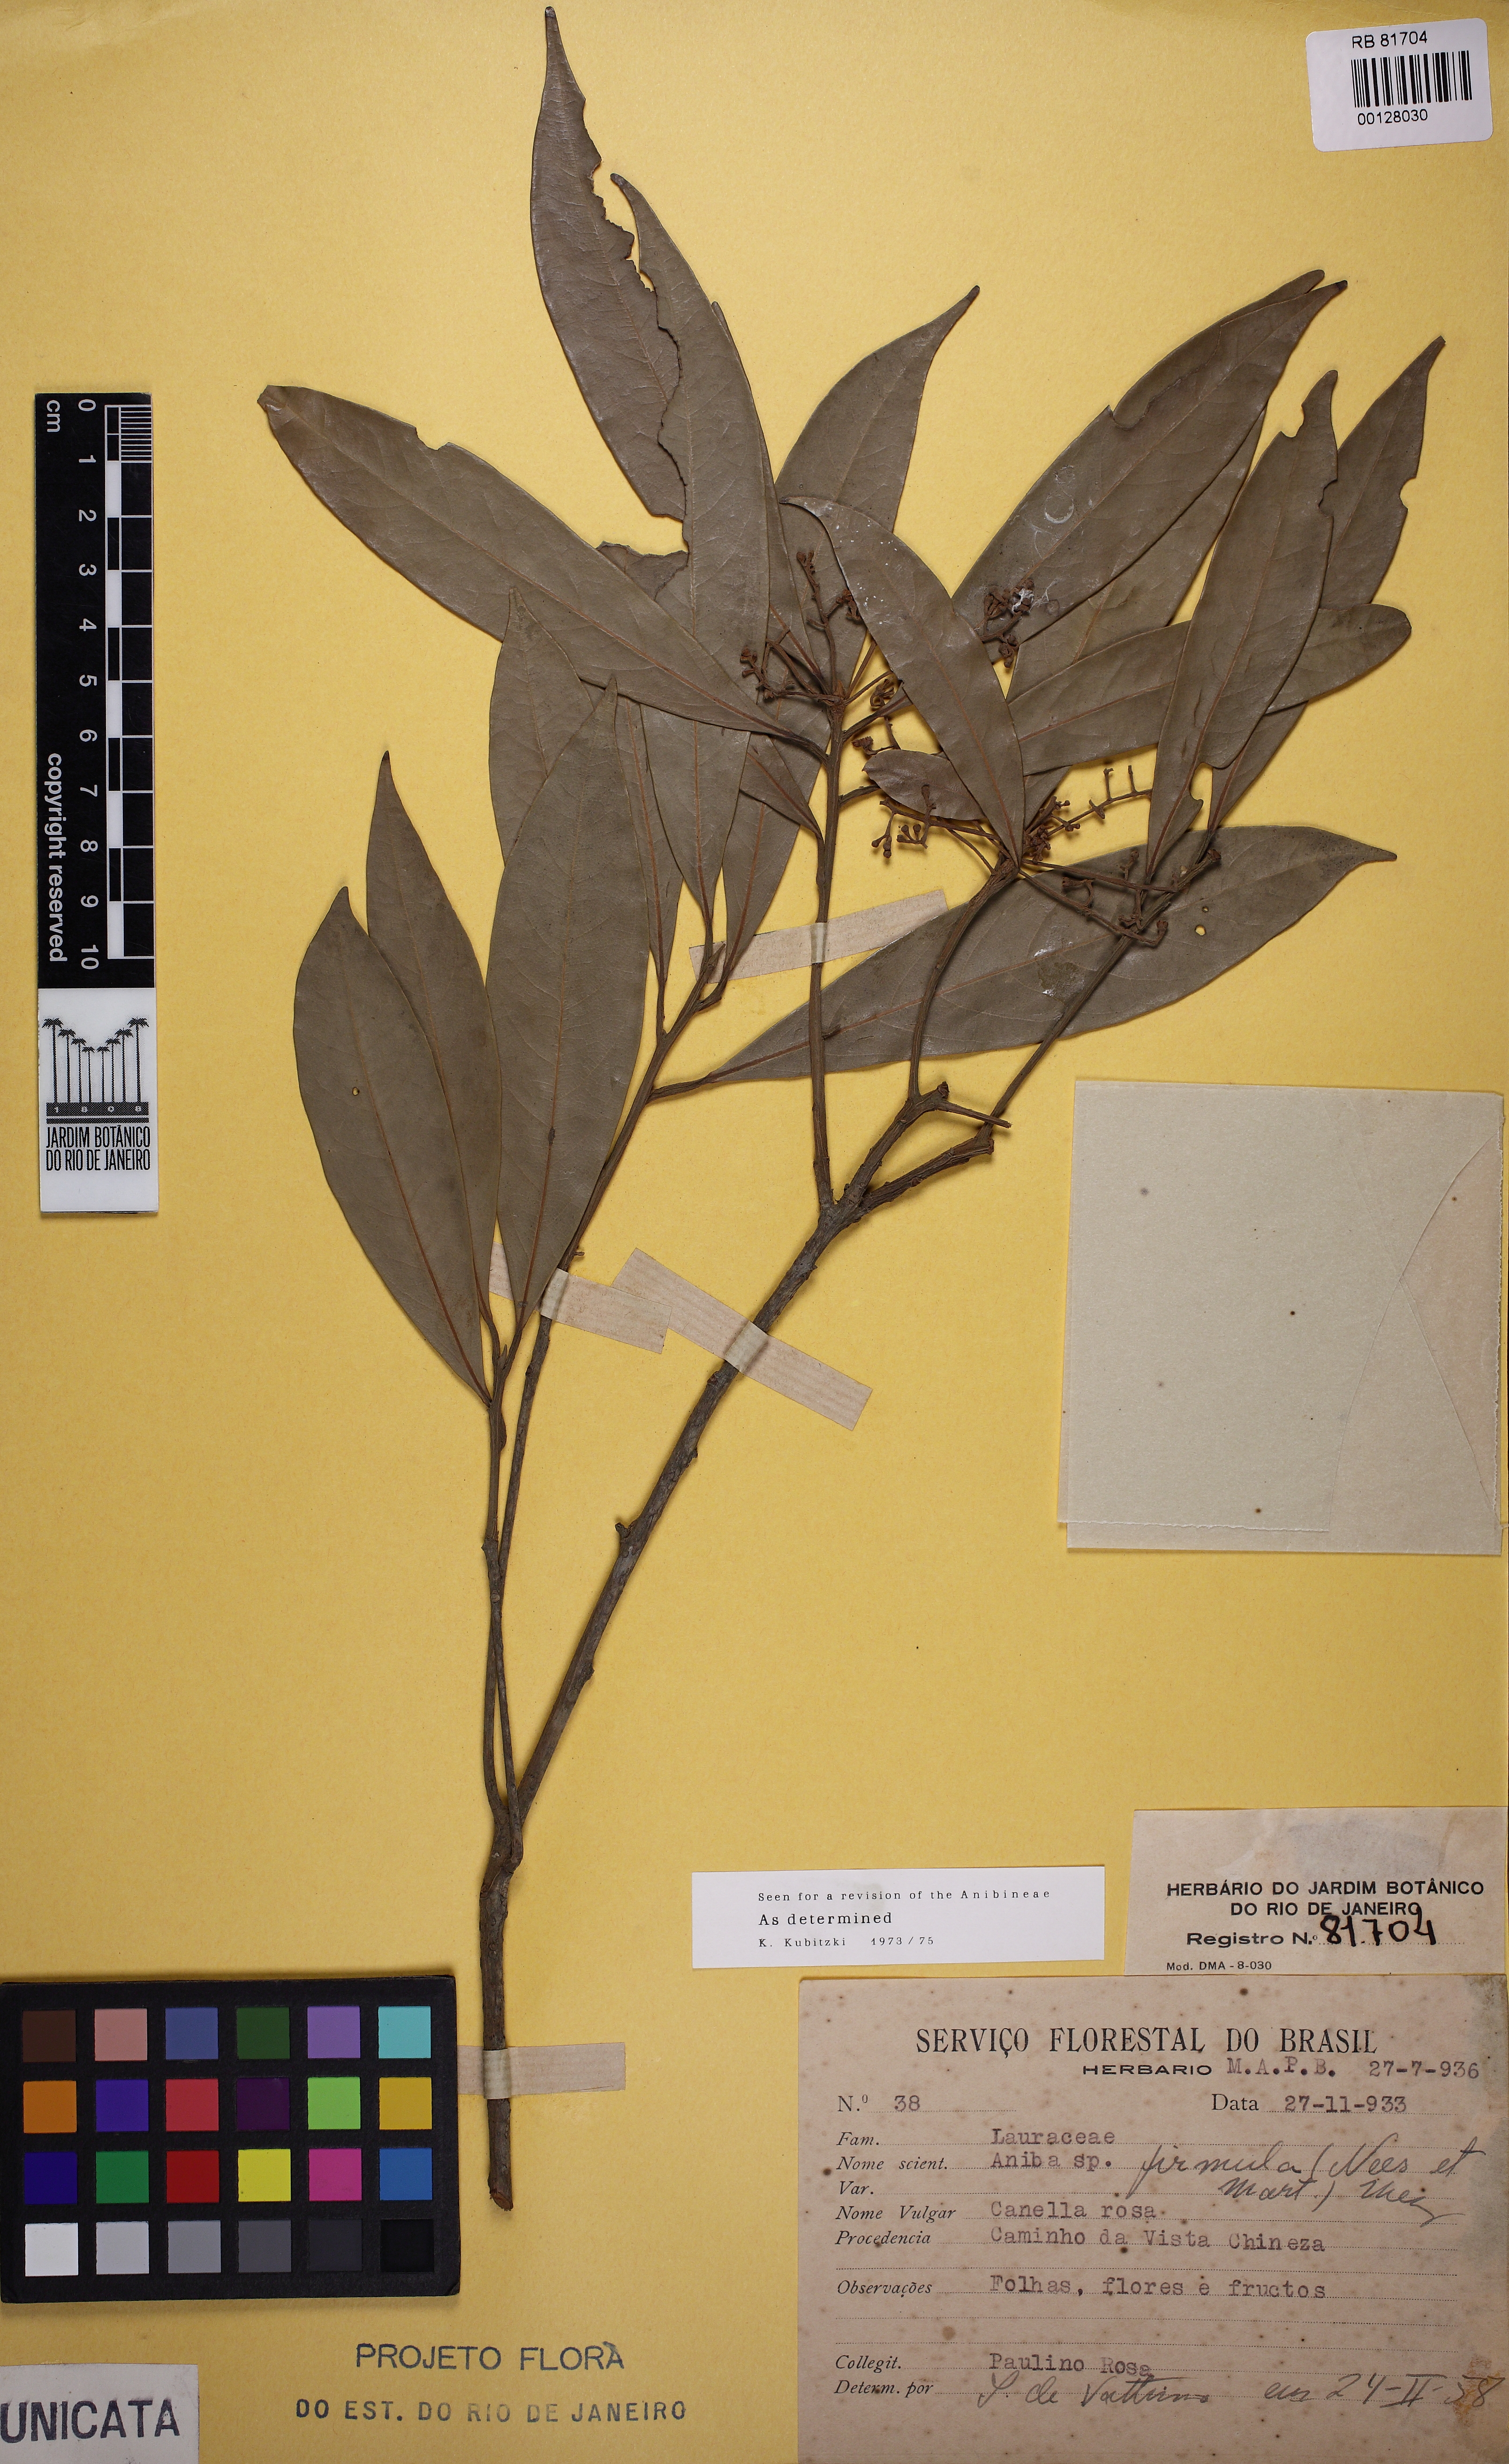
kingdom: Plantae
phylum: Tracheophyta
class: Magnoliopsida
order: Laurales
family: Lauraceae
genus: Aniba
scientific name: Aniba firmula
